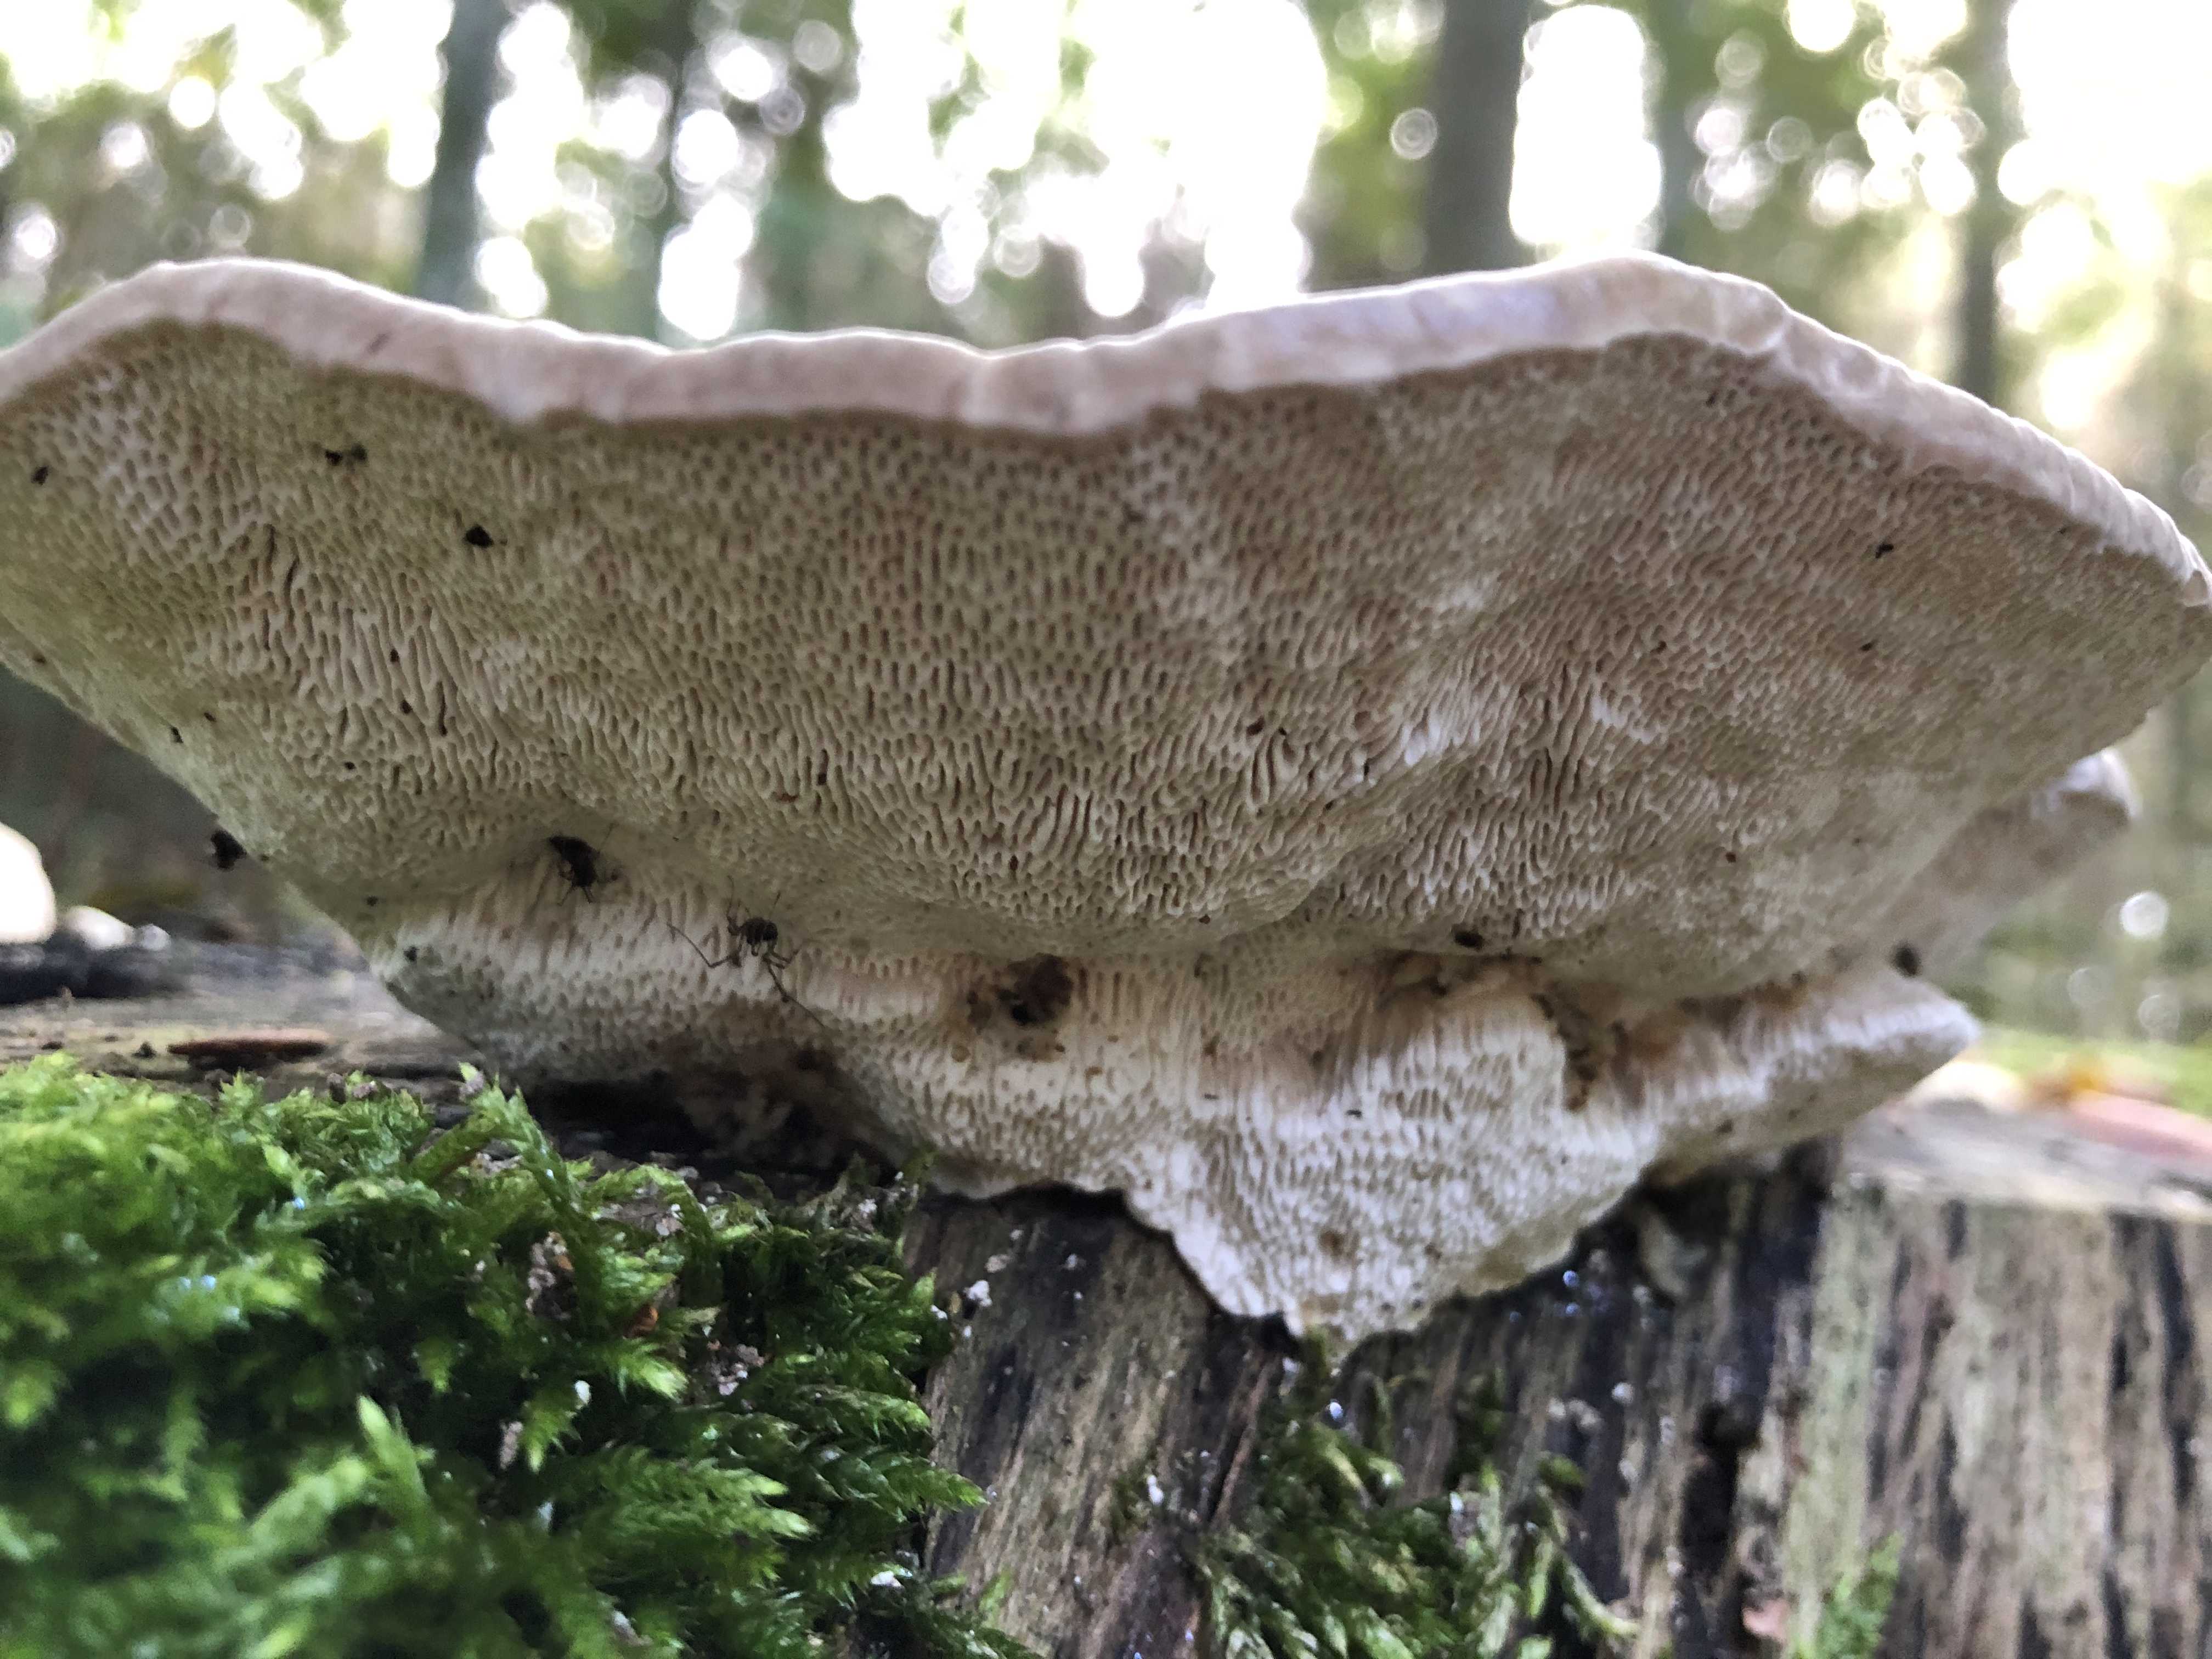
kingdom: Fungi
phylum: Basidiomycota
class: Agaricomycetes
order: Polyporales
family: Polyporaceae
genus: Trametes
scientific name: Trametes gibbosa
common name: puklet læderporesvamp
